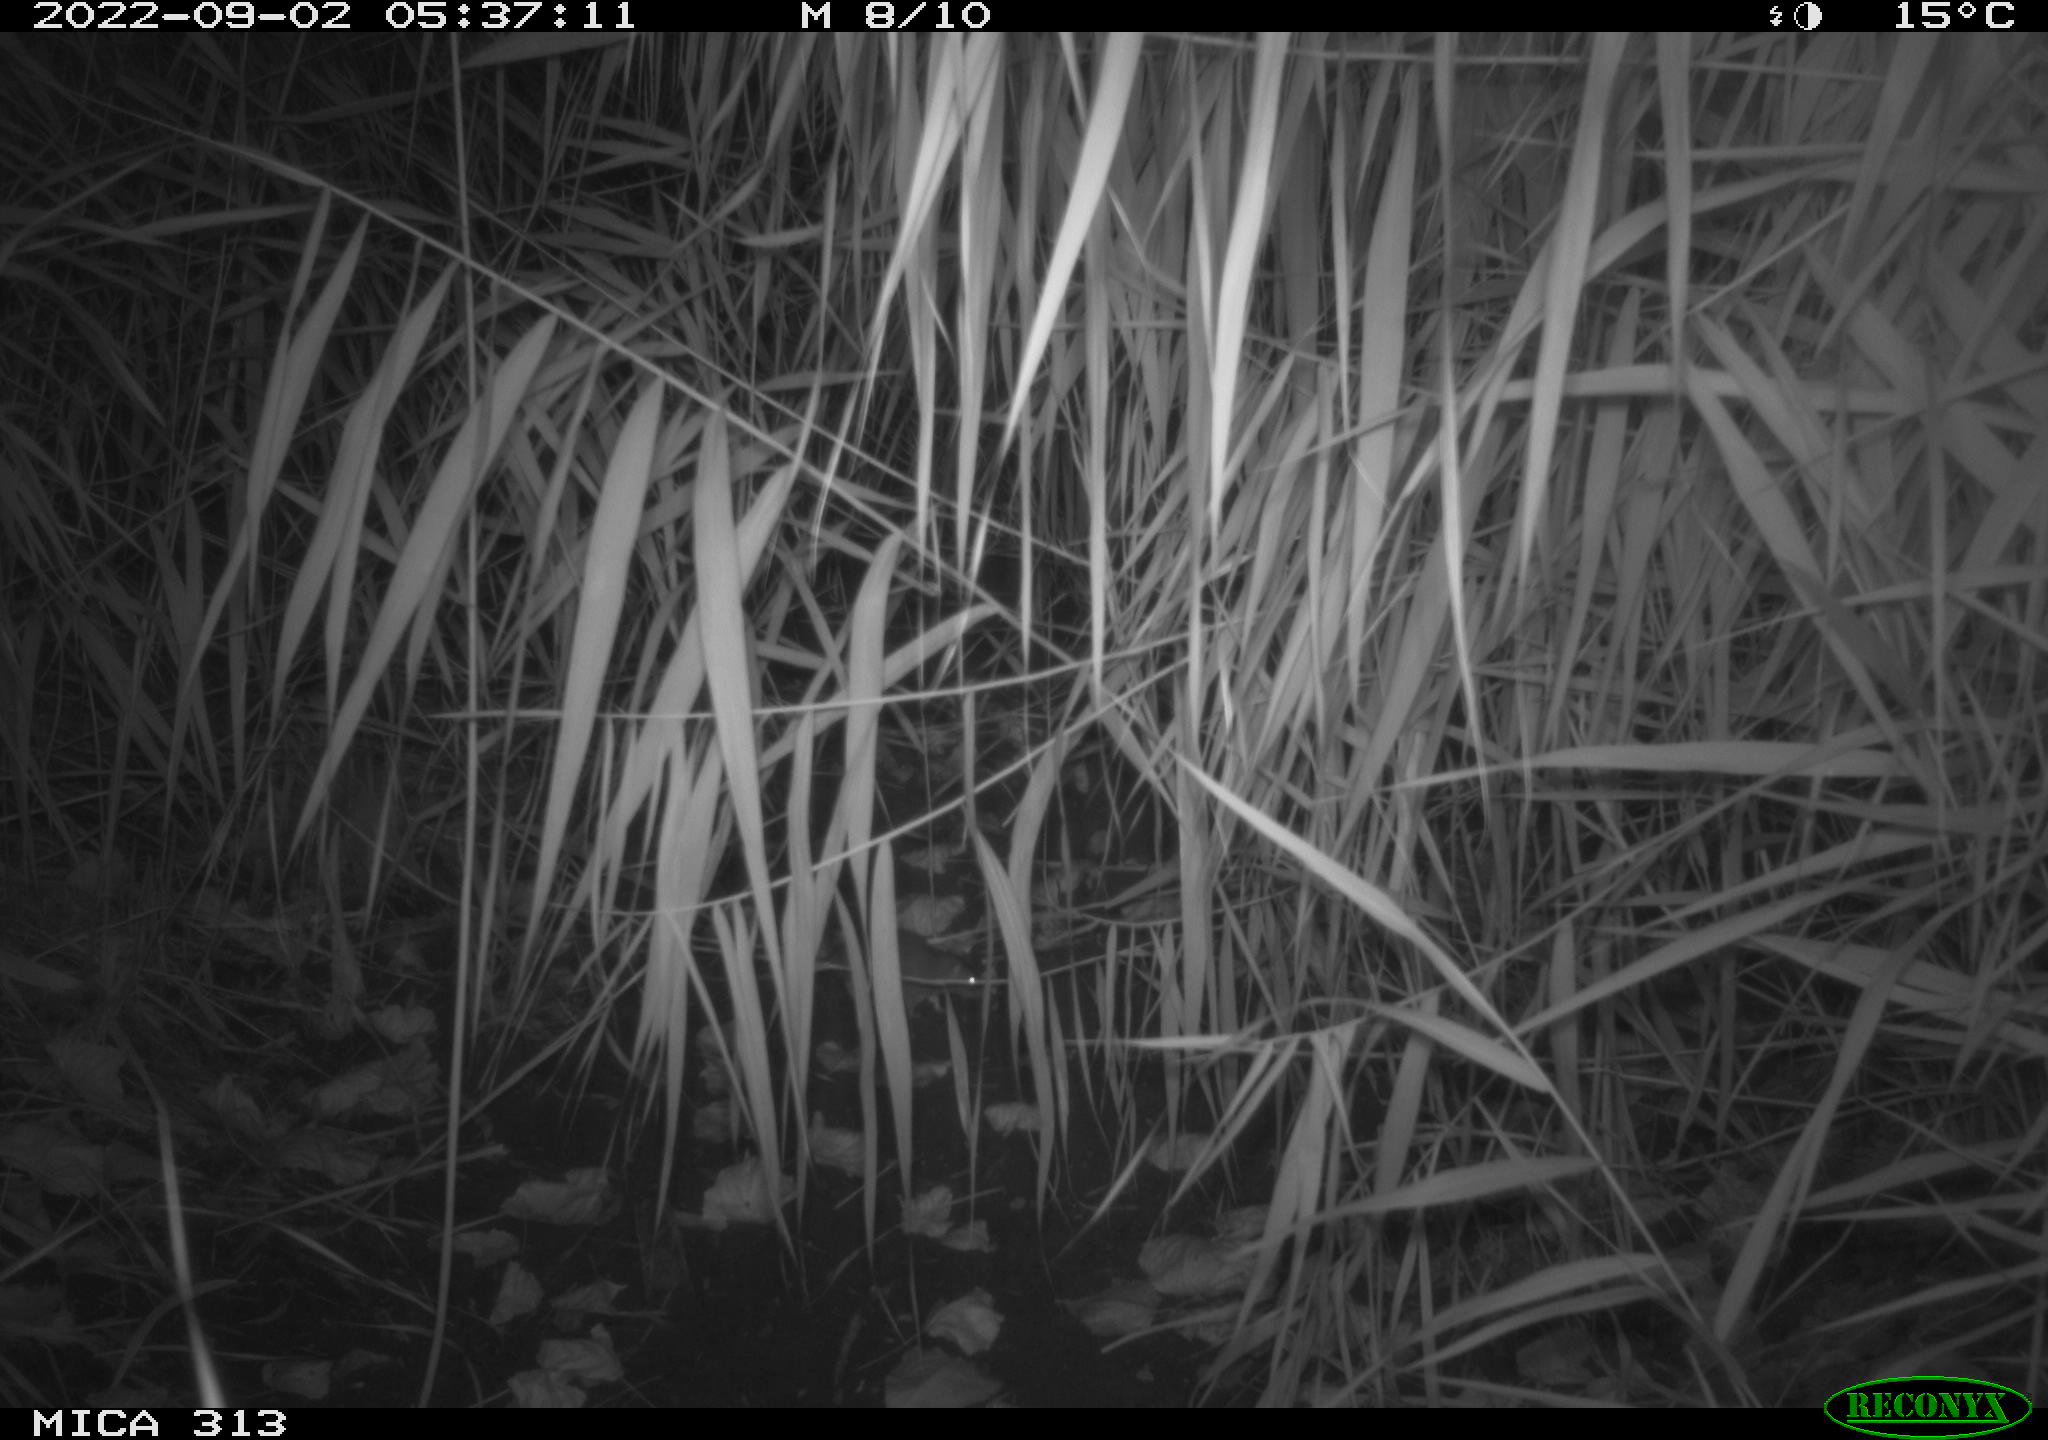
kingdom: Animalia
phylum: Chordata
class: Mammalia
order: Rodentia
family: Muridae
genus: Rattus
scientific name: Rattus norvegicus
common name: Brown rat
